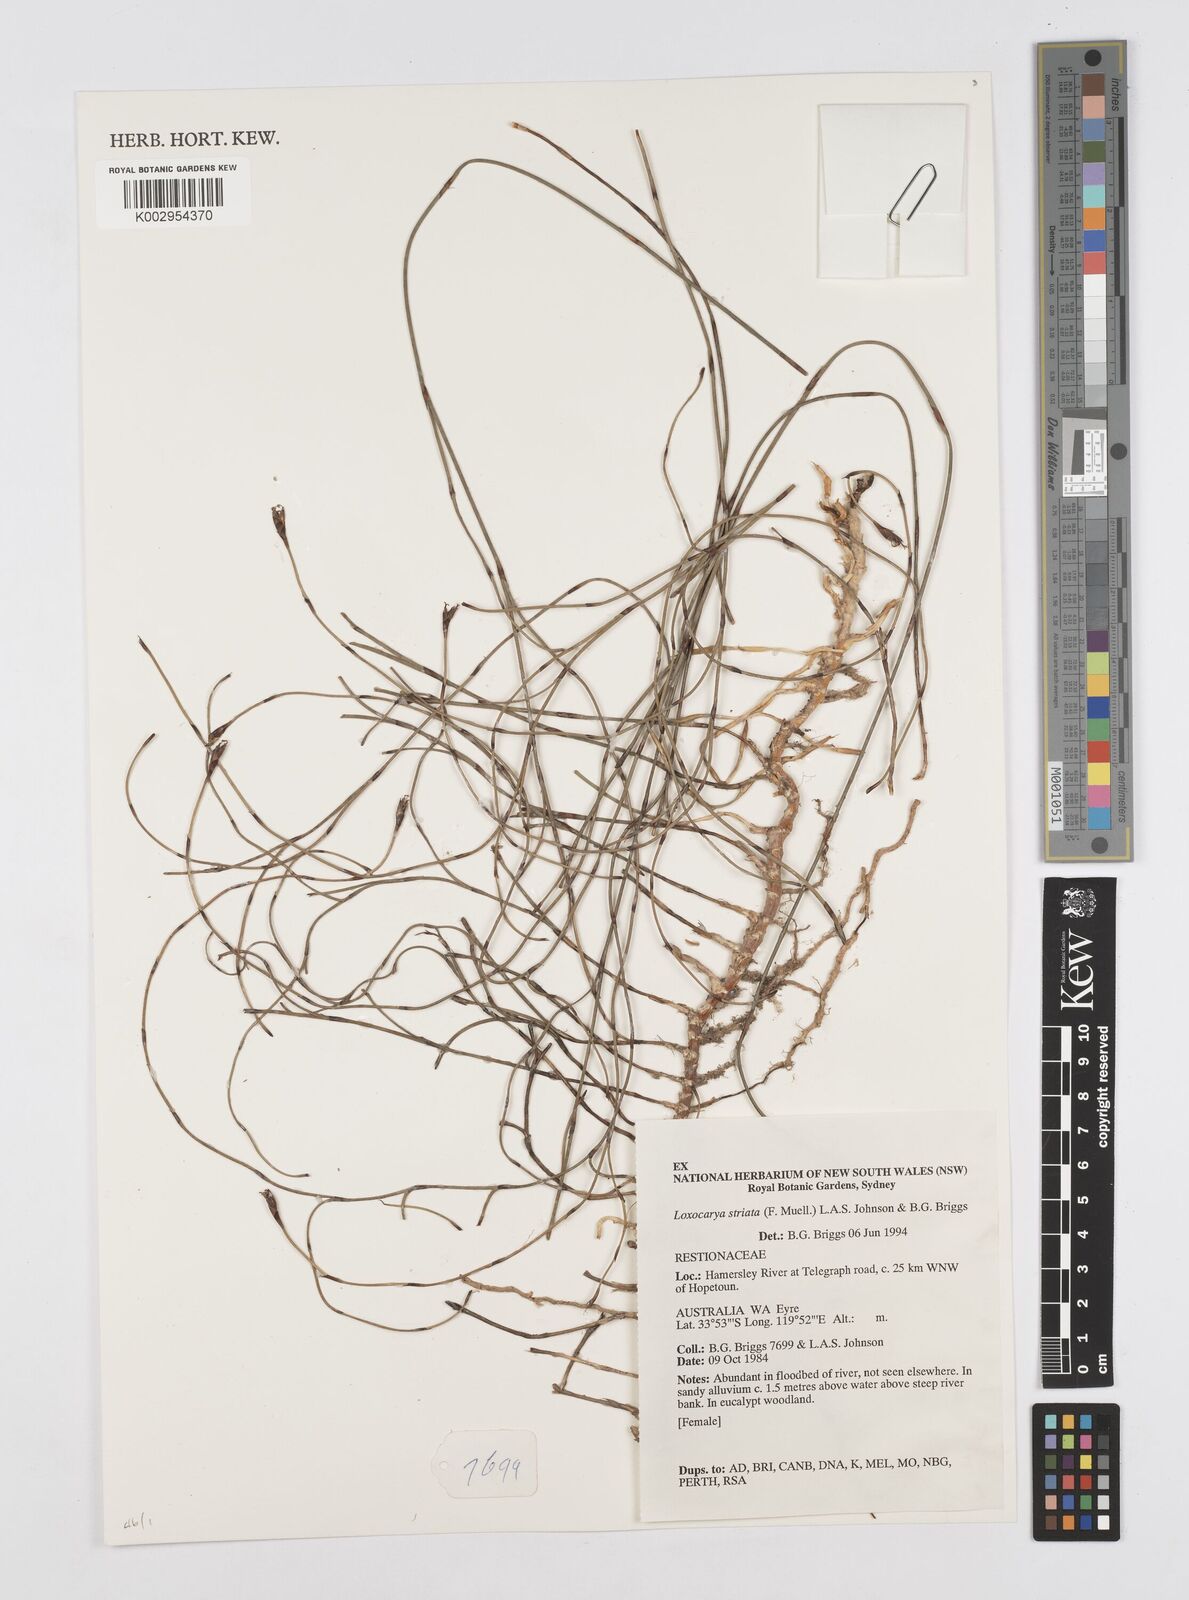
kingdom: Plantae
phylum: Tracheophyta
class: Liliopsida
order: Poales
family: Restionaceae
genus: Loxocarya
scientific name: Loxocarya striata
